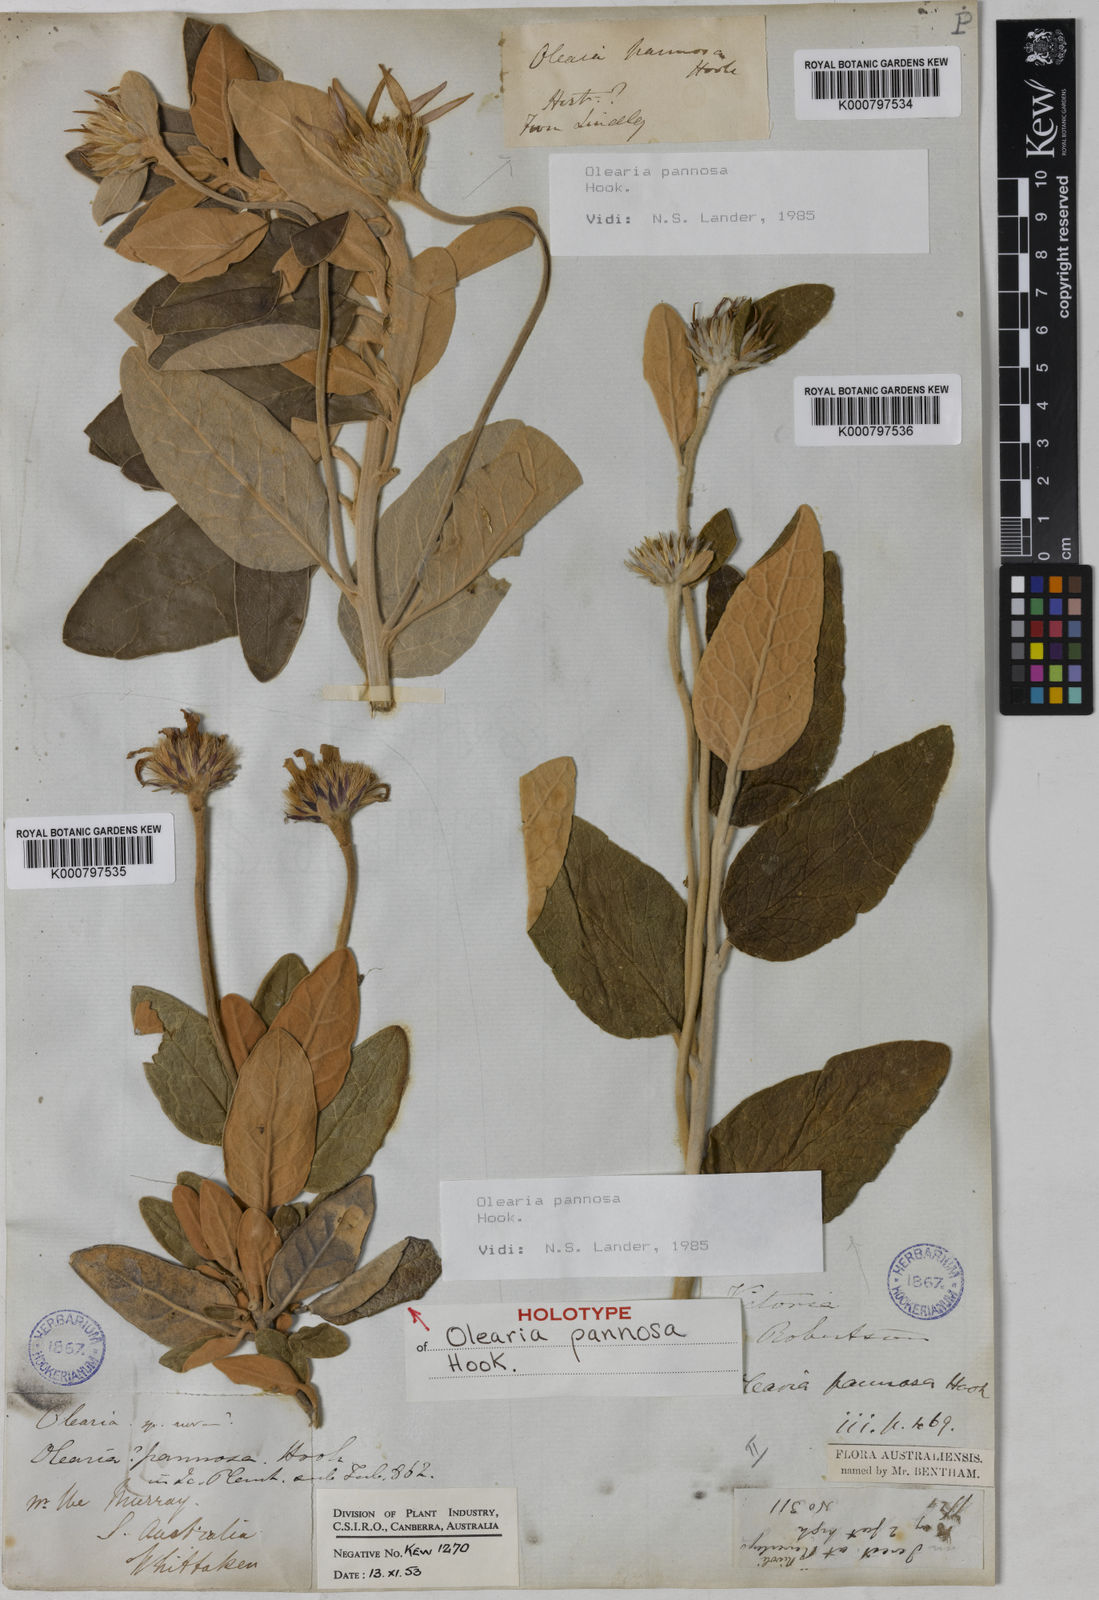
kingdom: Plantae
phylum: Tracheophyta
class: Magnoliopsida
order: Asterales
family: Asteraceae
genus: Olearia
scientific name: Olearia pannosa
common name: Velvet daisybush
